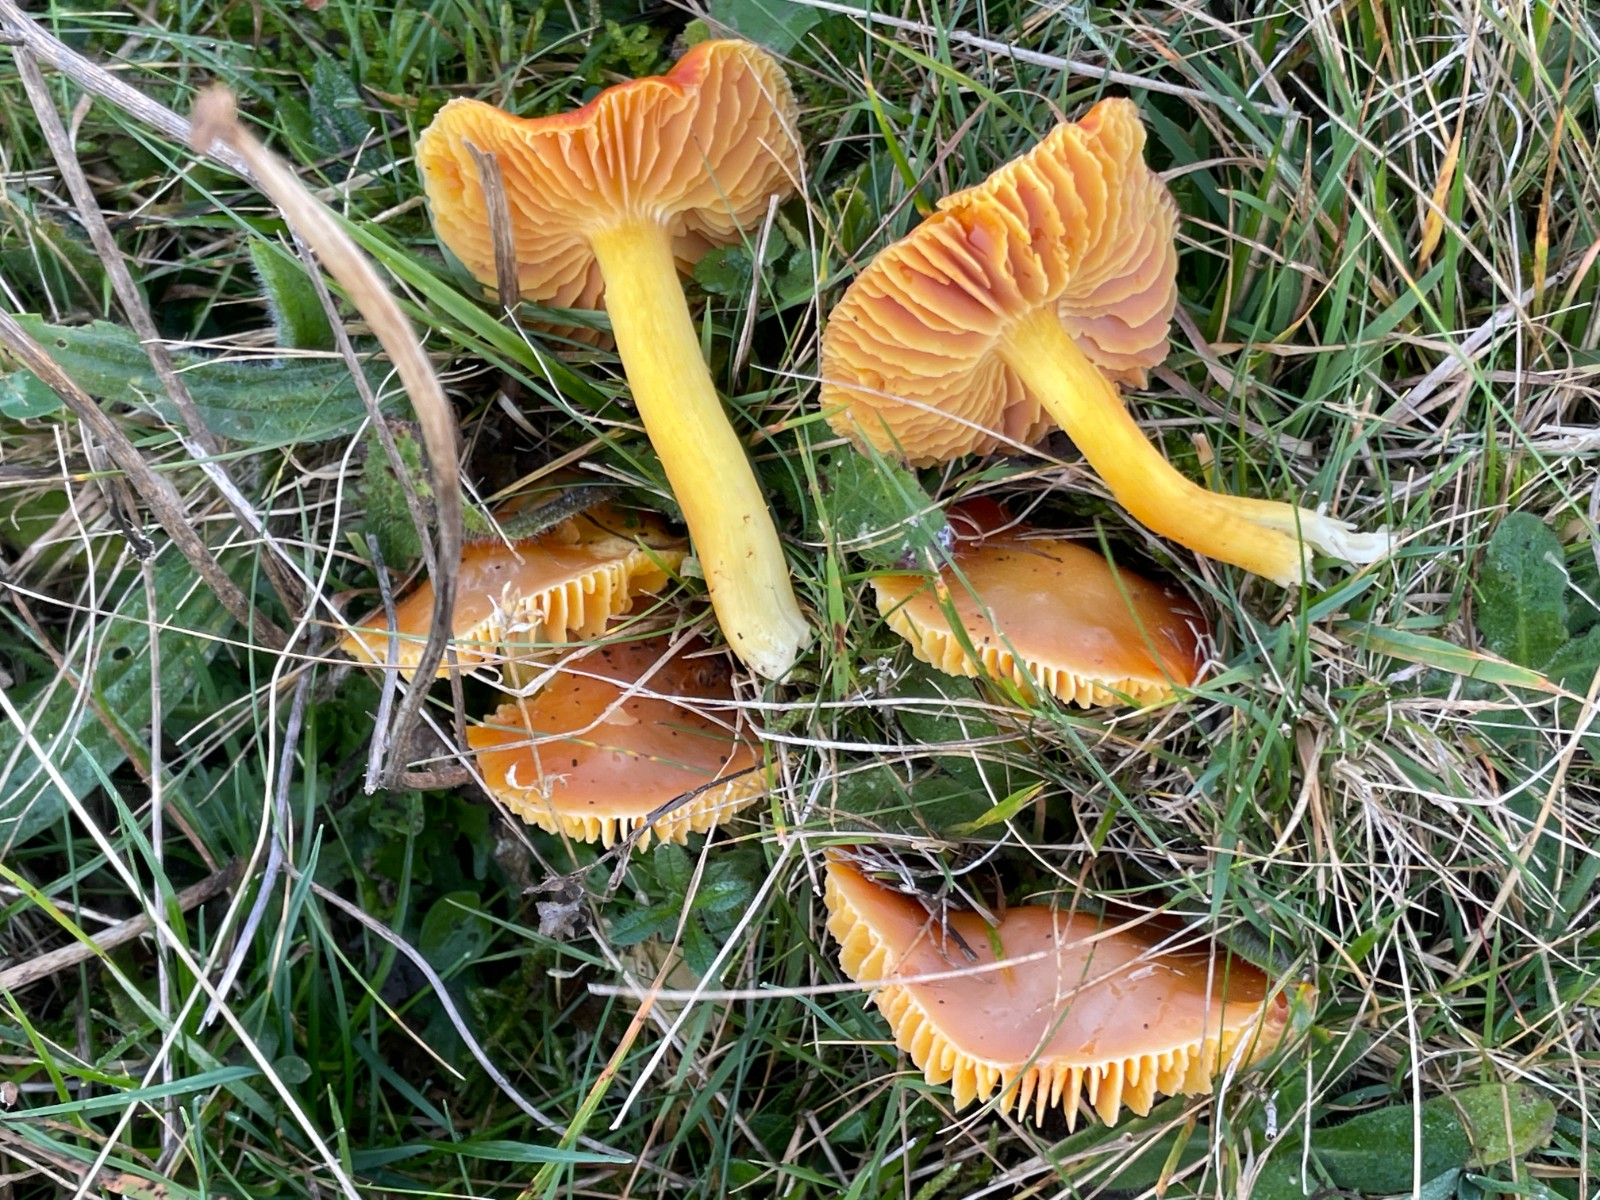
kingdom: Fungi
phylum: Basidiomycota
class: Agaricomycetes
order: Agaricales
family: Hygrophoraceae
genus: Hygrocybe
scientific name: Hygrocybe punicea
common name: skarlagen-vokshat
